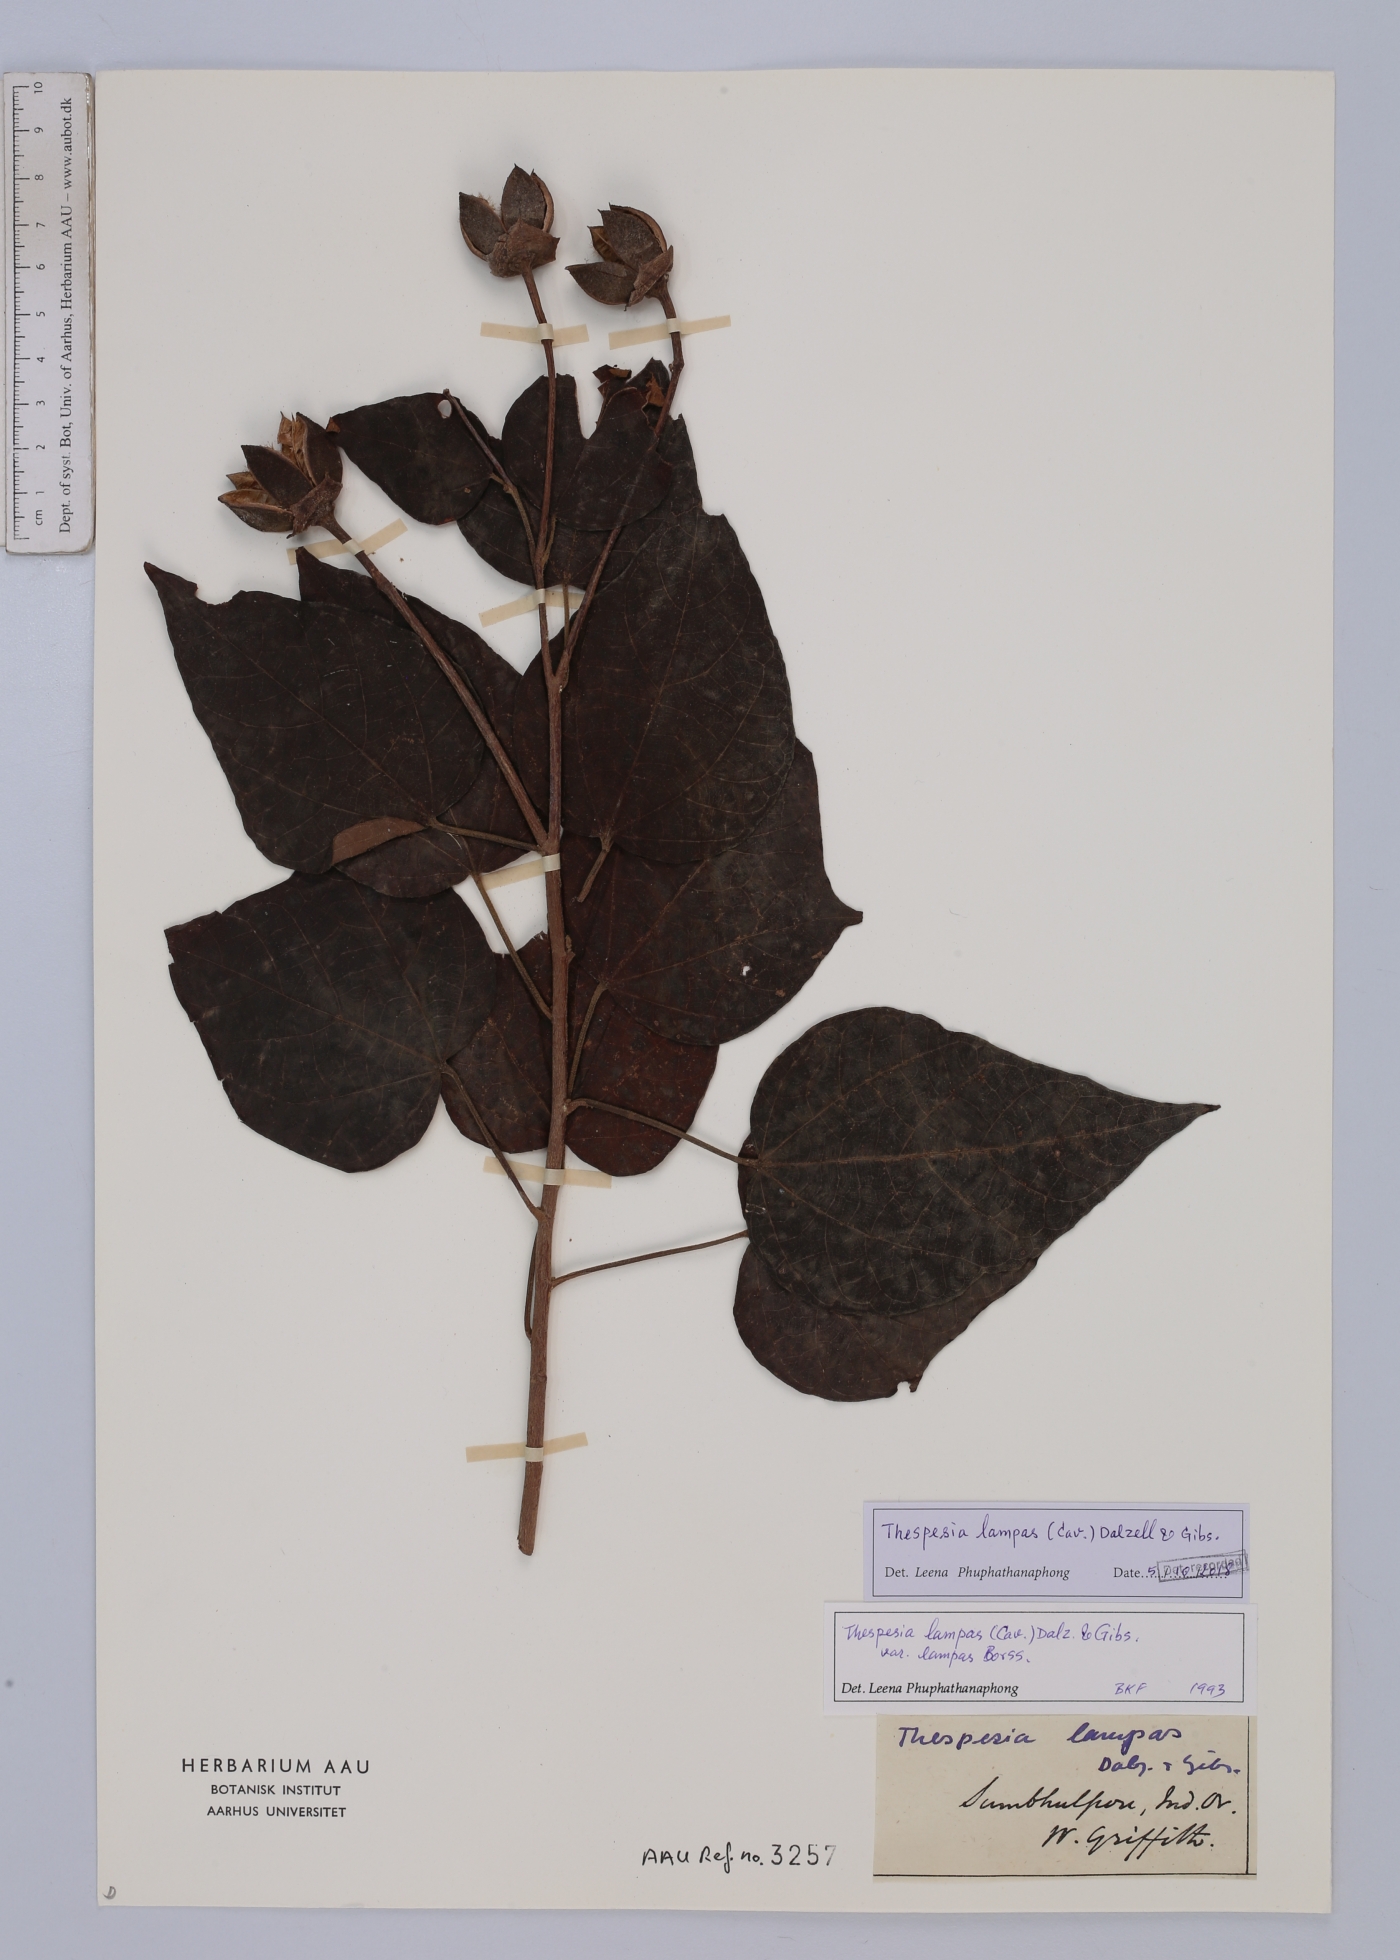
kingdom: Plantae
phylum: Tracheophyta
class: Magnoliopsida
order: Malvales
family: Malvaceae
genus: Thespesia
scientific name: Thespesia lampas
